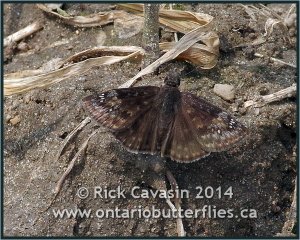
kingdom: Animalia
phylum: Arthropoda
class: Insecta
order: Lepidoptera
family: Hesperiidae
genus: Gesta
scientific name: Gesta
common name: Wild Indigo Duskywing
